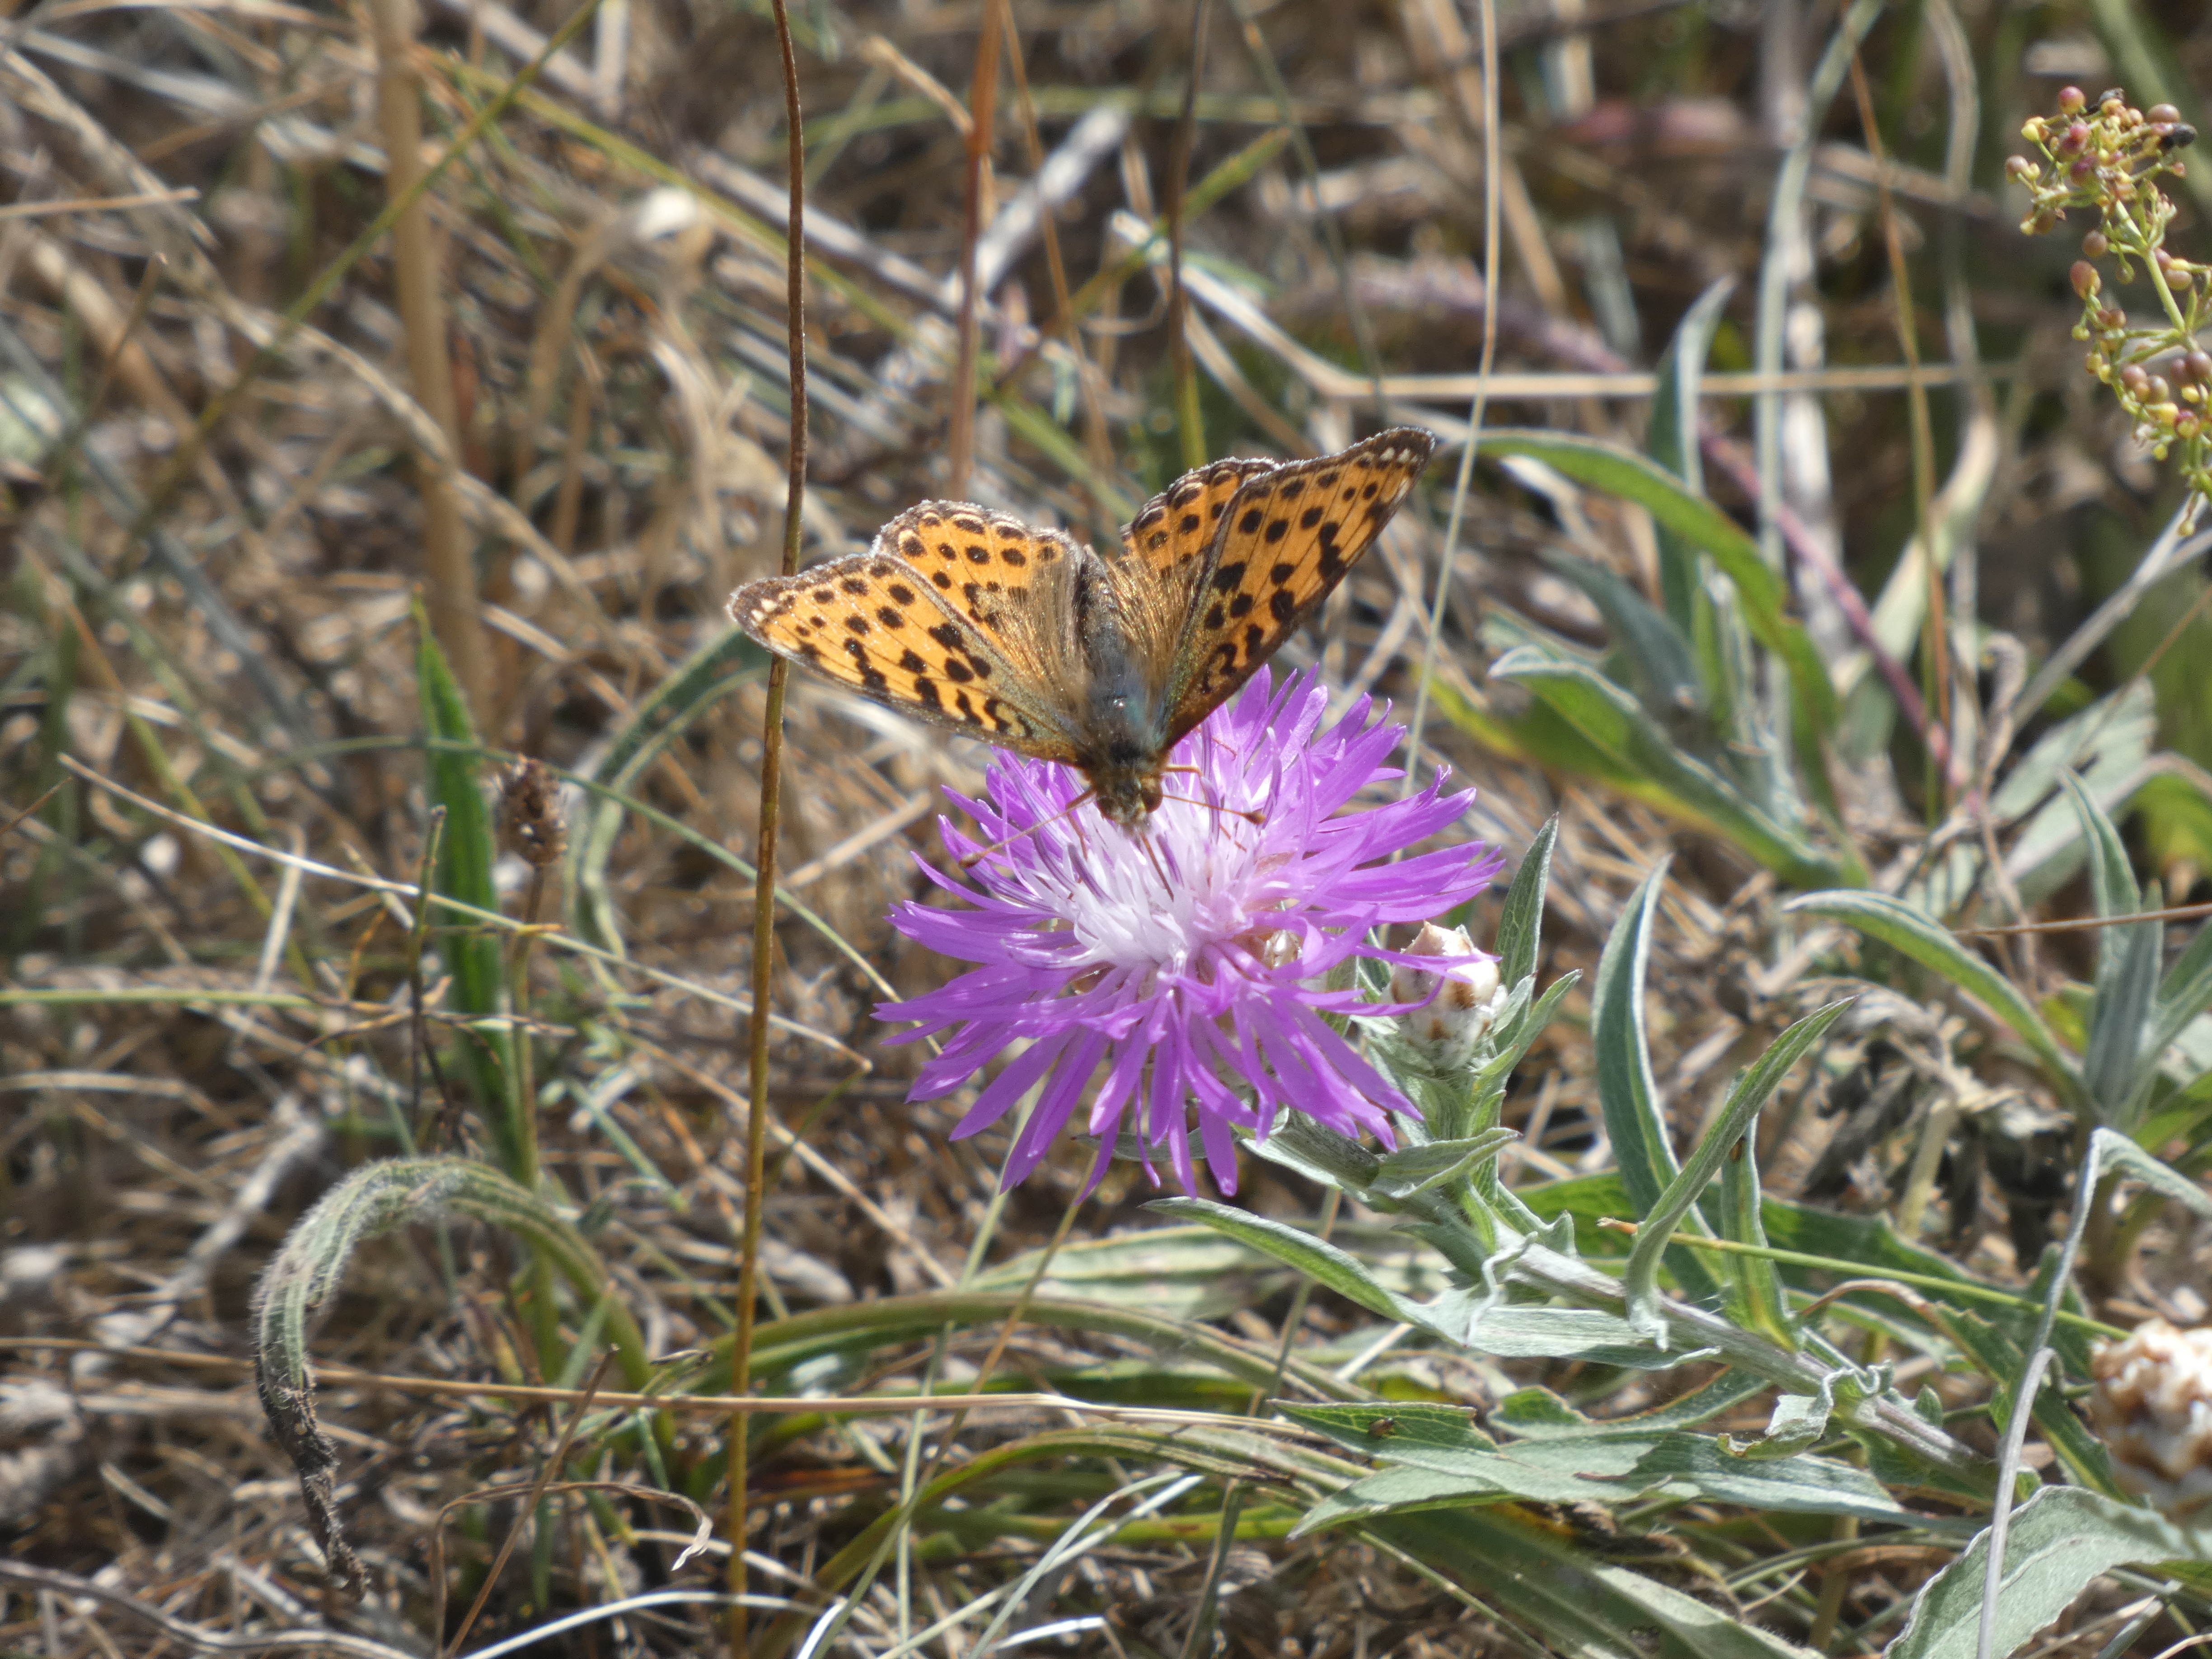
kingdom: Animalia
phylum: Arthropoda
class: Insecta
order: Lepidoptera
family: Nymphalidae
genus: Issoria
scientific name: Issoria lathonia
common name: Storplettet perlemorsommerfugl
